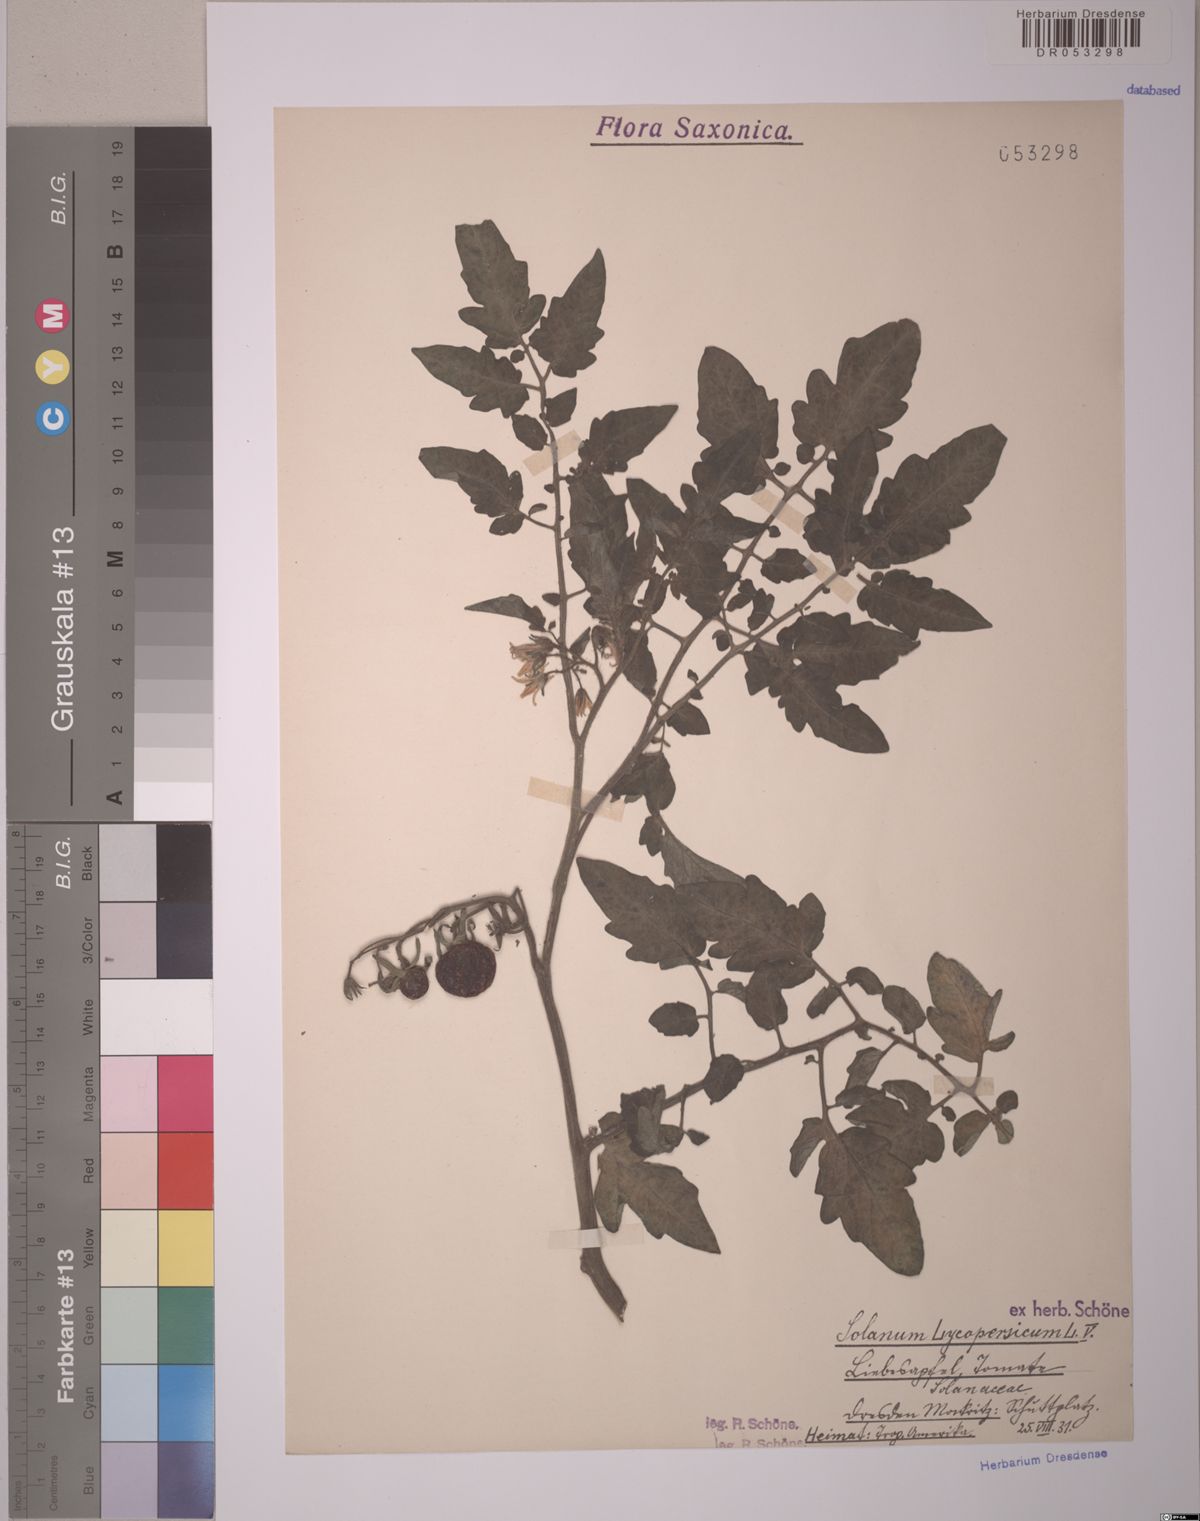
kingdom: Plantae
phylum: Tracheophyta
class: Magnoliopsida
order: Solanales
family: Solanaceae
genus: Solanum
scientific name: Solanum lycopersicum
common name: Garden tomato
